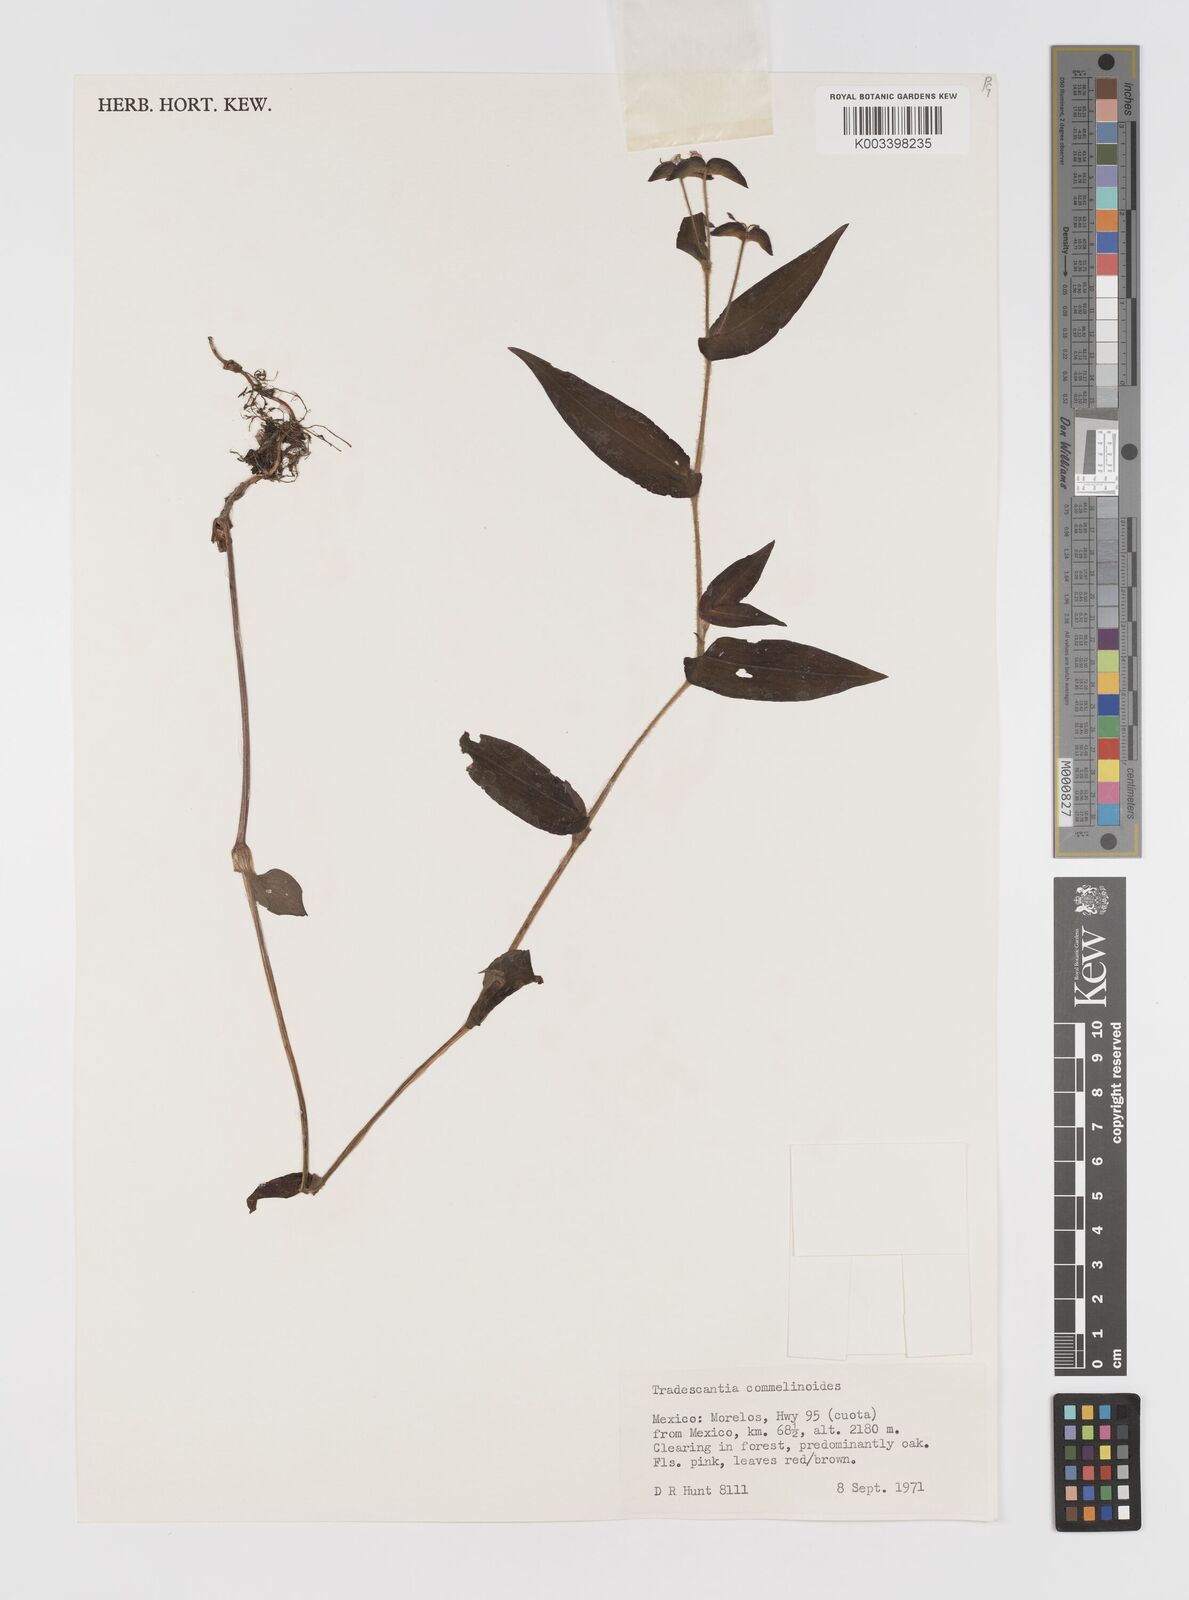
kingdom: Plantae
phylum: Tracheophyta
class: Liliopsida
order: Commelinales
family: Commelinaceae
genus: Tradescantia
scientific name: Tradescantia commelinoides
